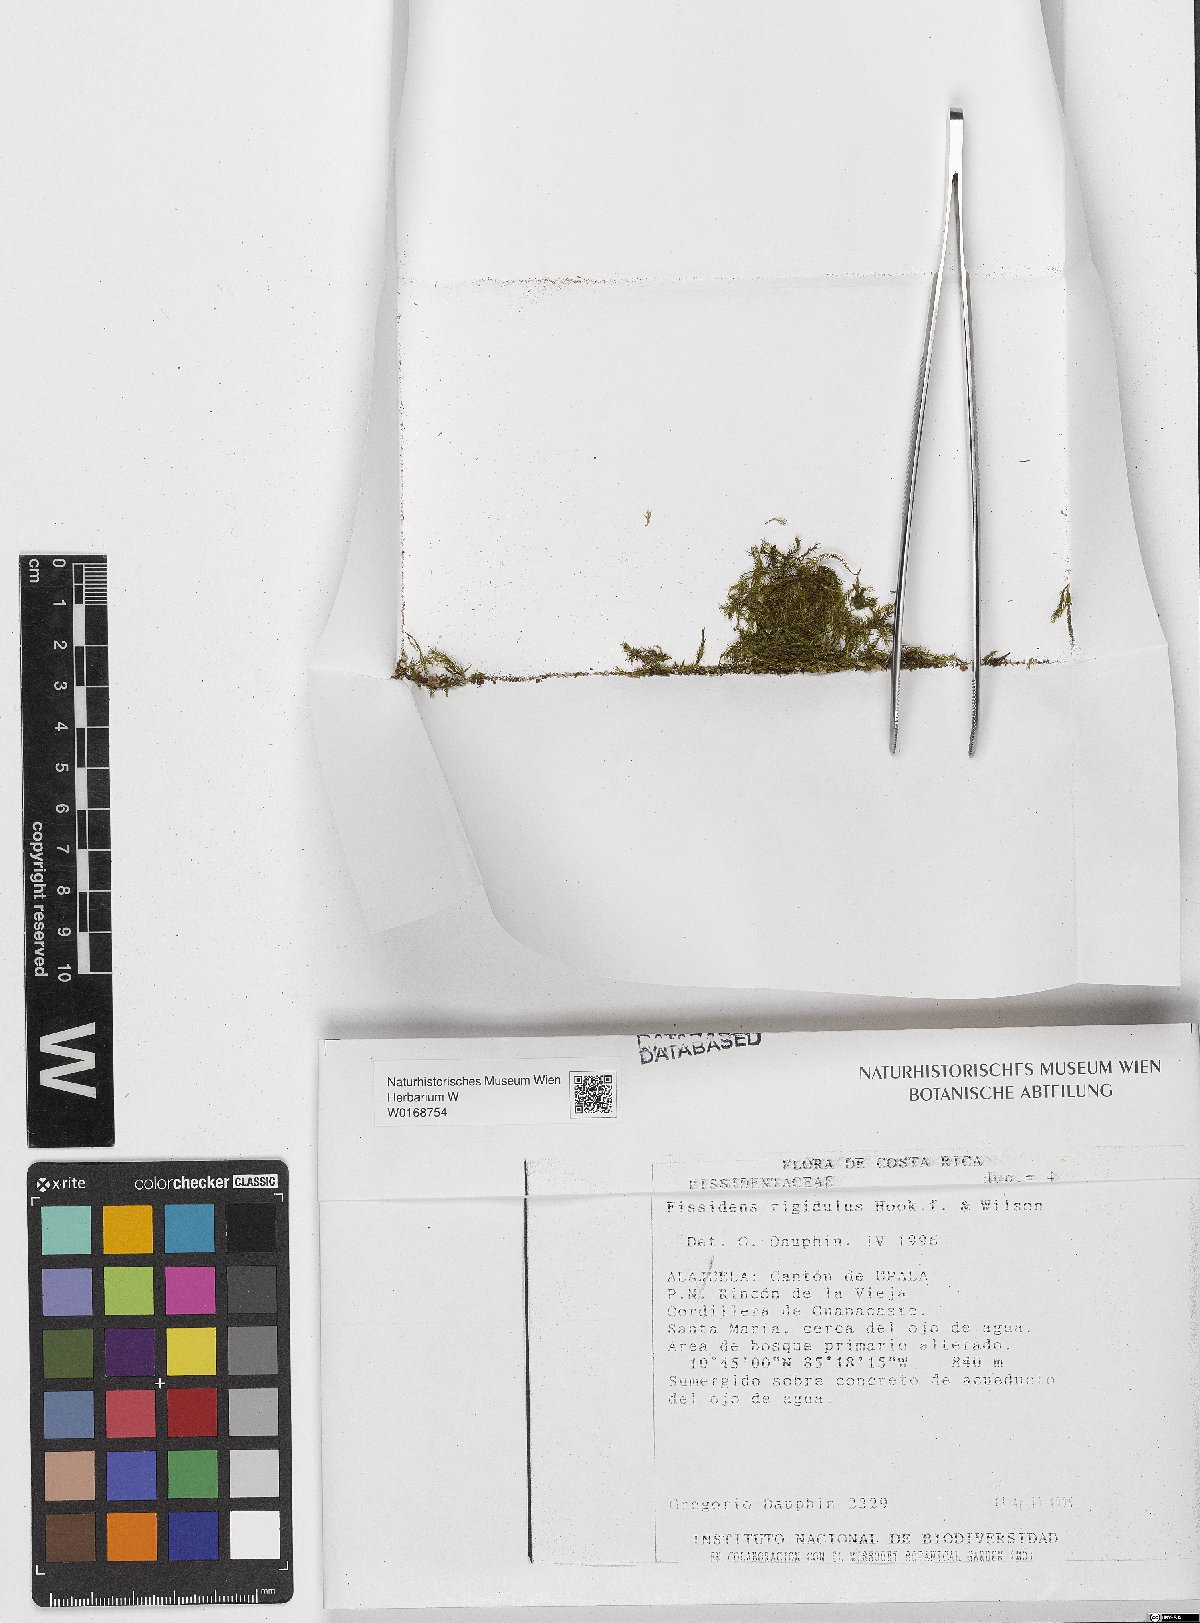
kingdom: Plantae
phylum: Bryophyta
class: Bryopsida
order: Dicranales
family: Fissidentaceae
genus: Fissidens
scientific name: Fissidens rigidulus
